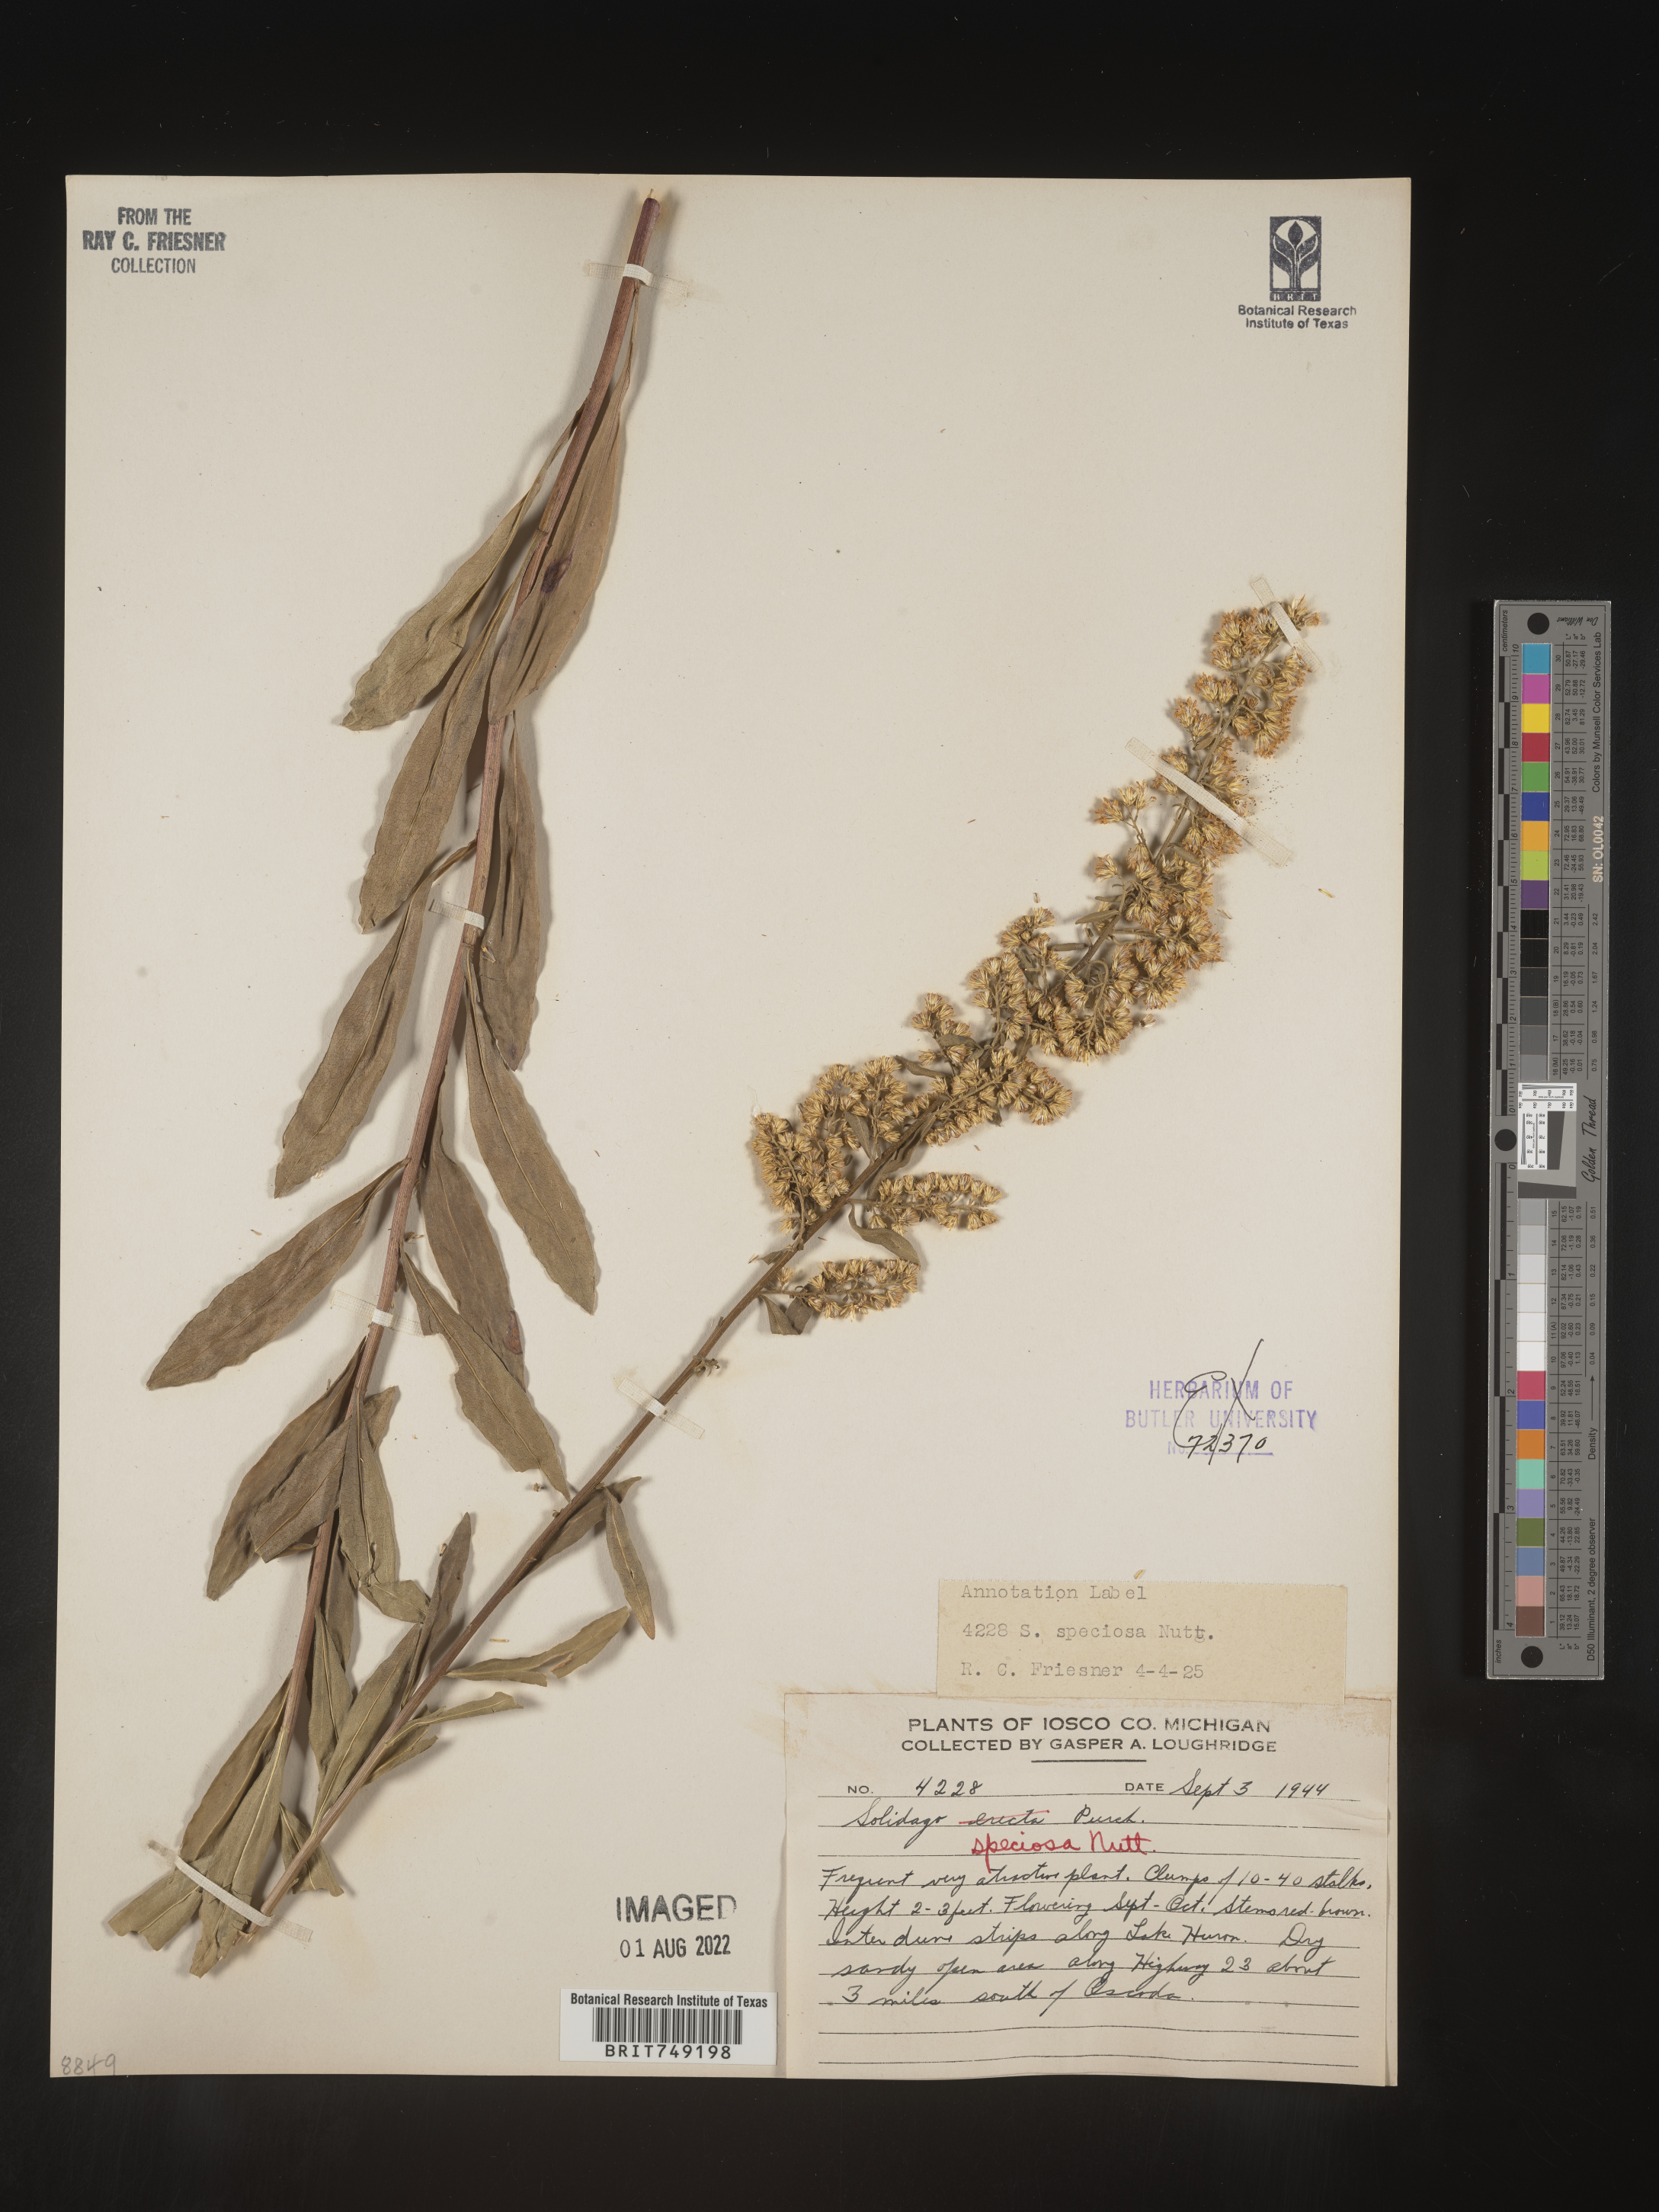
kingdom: Plantae
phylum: Tracheophyta
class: Magnoliopsida
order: Asterales
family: Asteraceae
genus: Solidago
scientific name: Solidago speciosa
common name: Showy goldenrod
